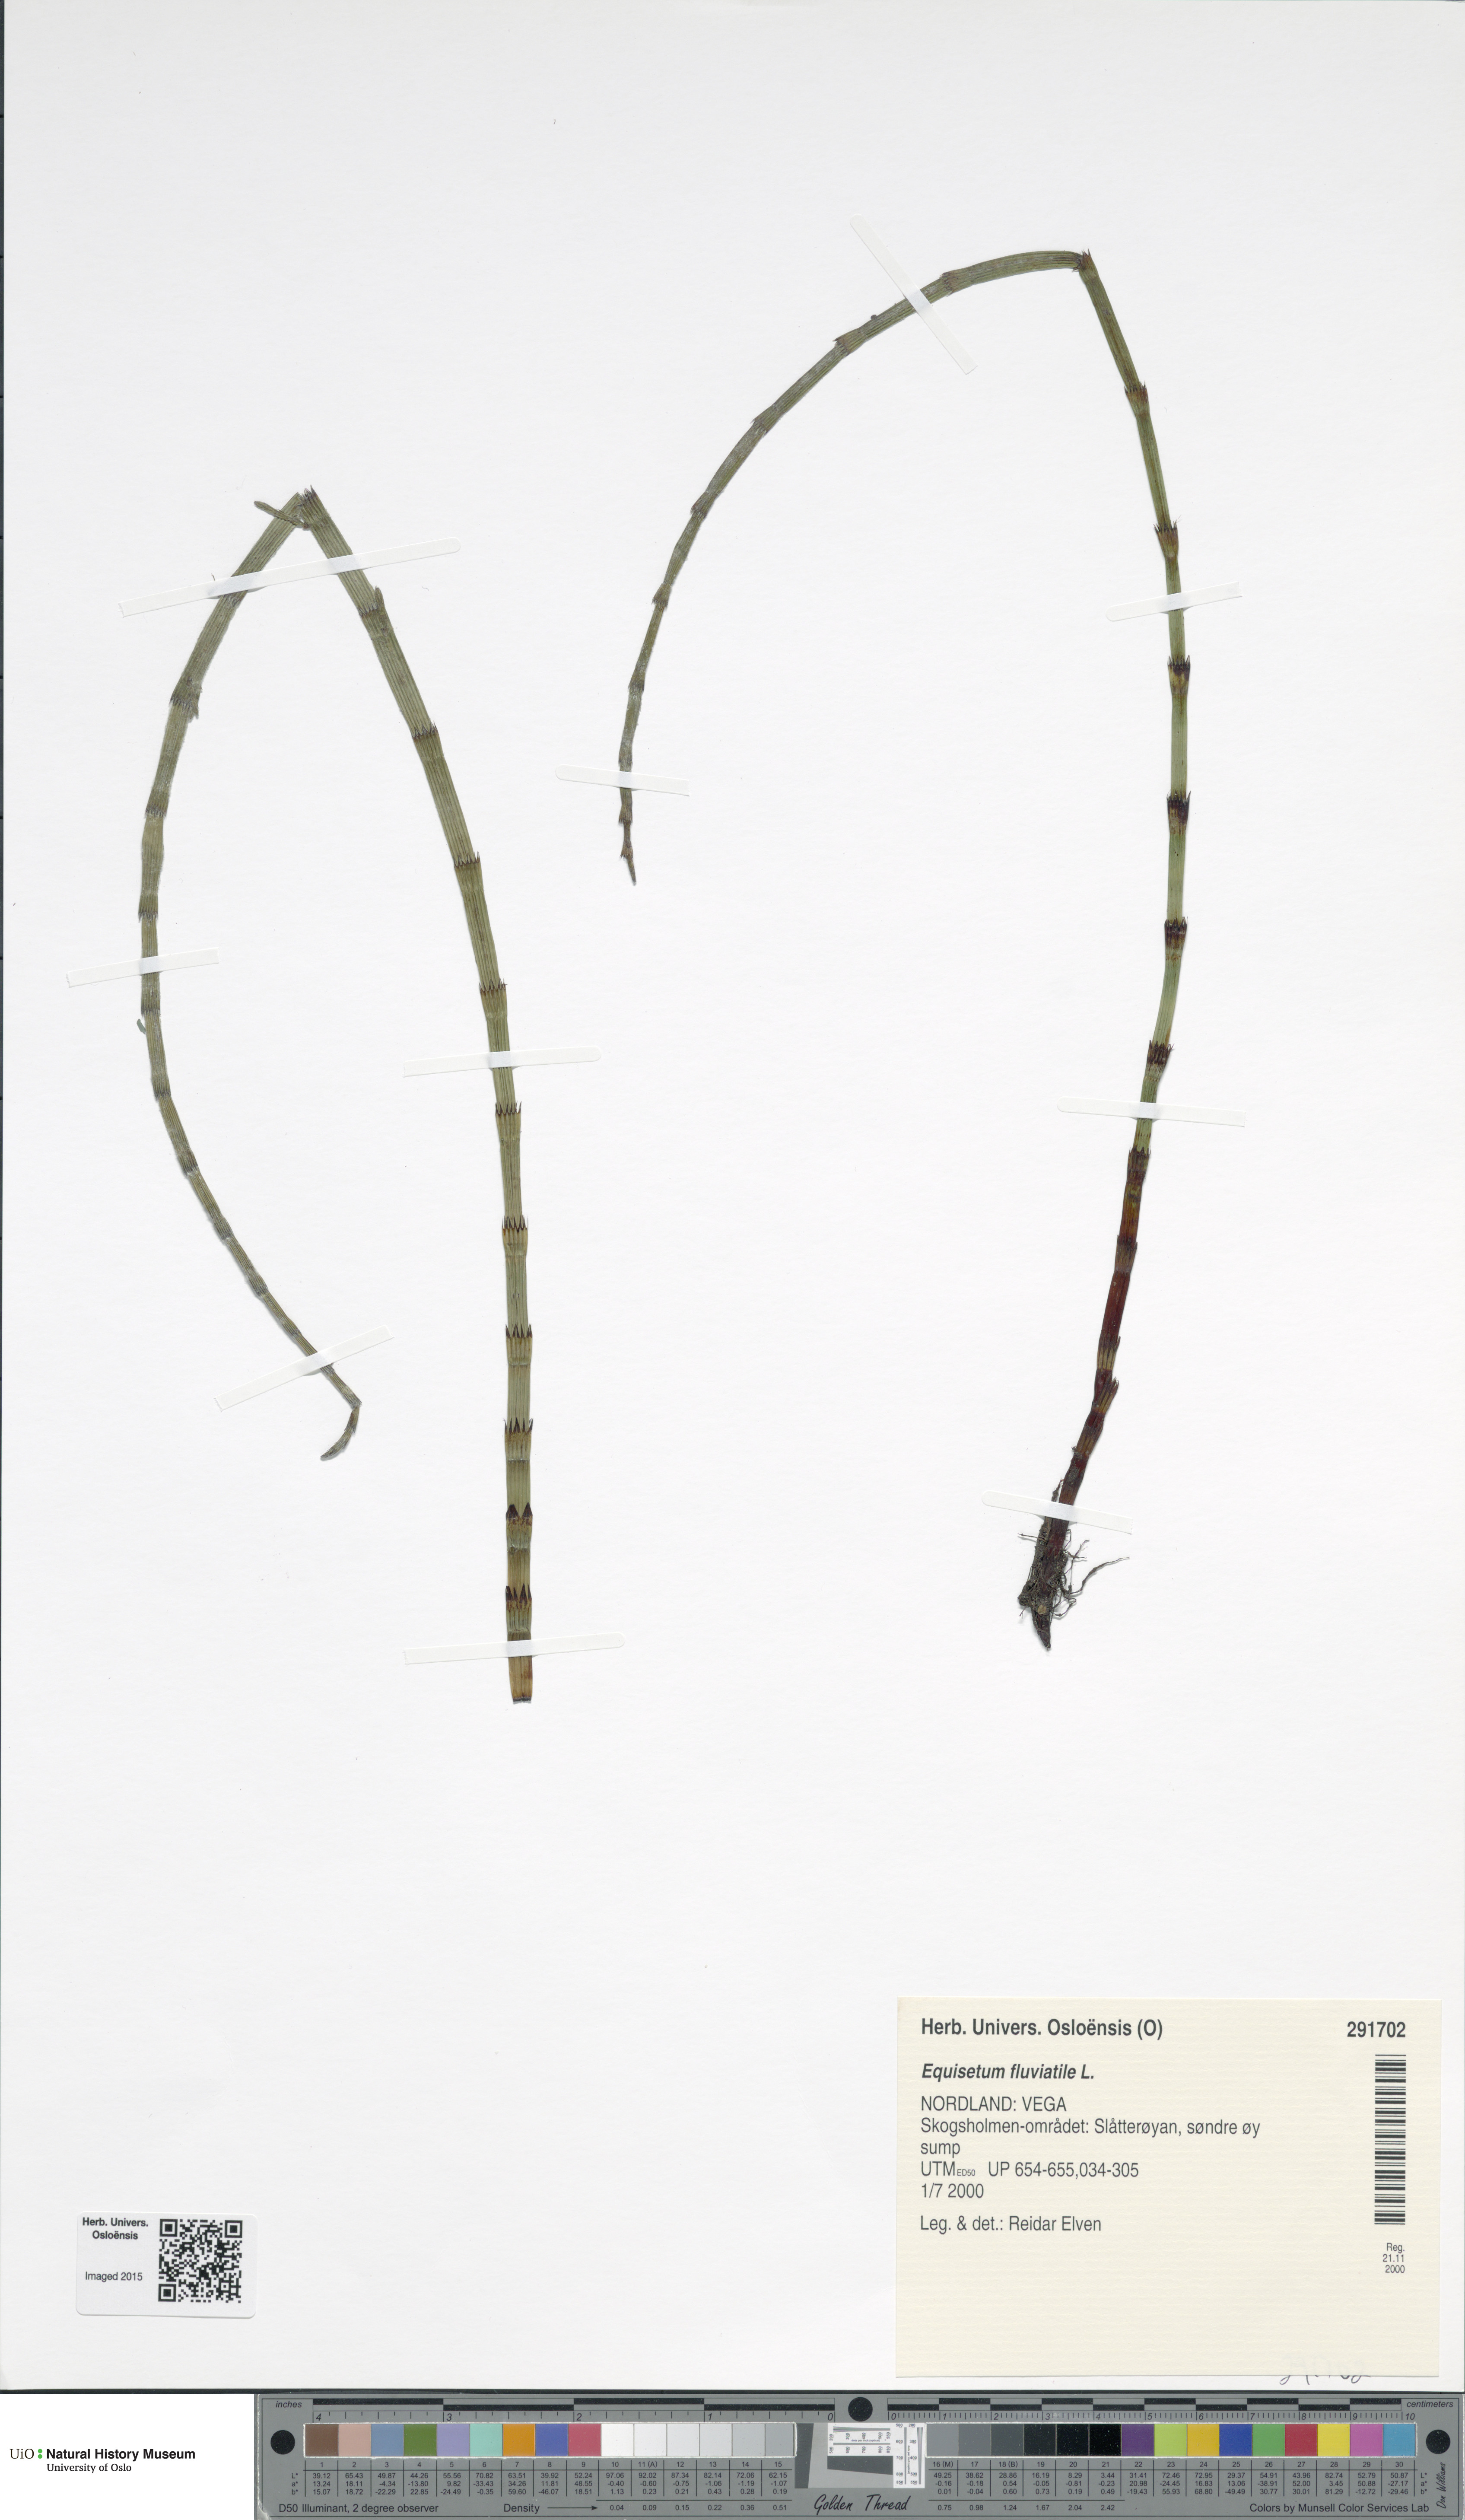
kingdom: Plantae
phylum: Tracheophyta
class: Polypodiopsida
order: Equisetales
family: Equisetaceae
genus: Equisetum
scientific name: Equisetum fluviatile
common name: Water horsetail
